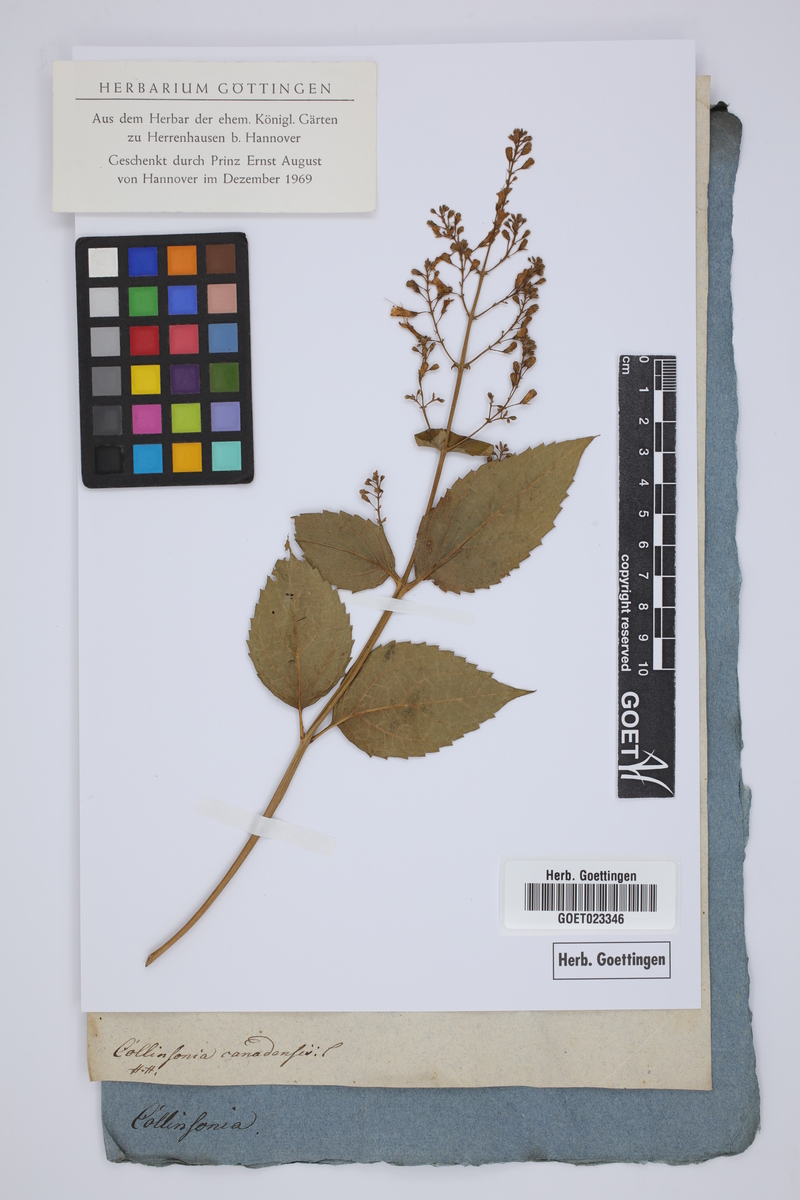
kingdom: Plantae
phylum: Tracheophyta
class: Magnoliopsida
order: Lamiales
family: Lamiaceae
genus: Collinsonia
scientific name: Collinsonia canadensis
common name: Northern horsebalm
